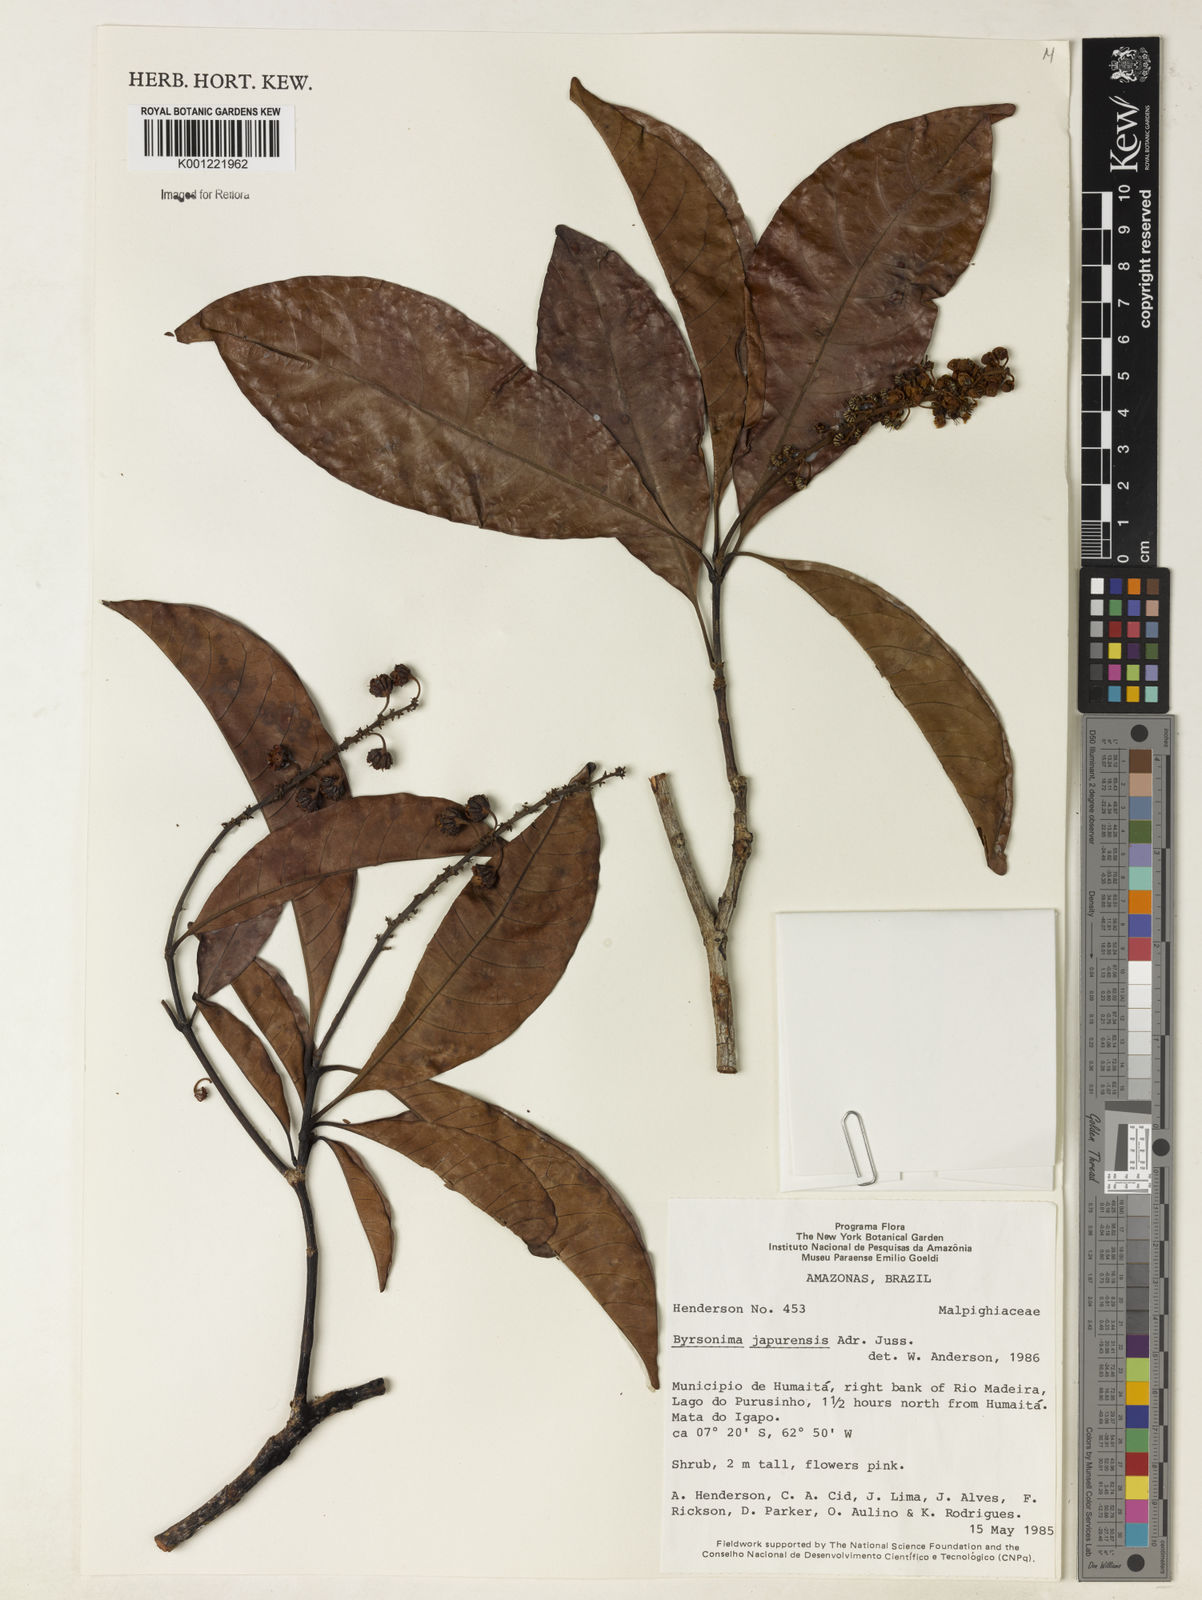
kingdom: Plantae
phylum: Tracheophyta
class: Magnoliopsida
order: Malpighiales
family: Malpighiaceae
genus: Byrsonima
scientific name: Byrsonima japurensis
